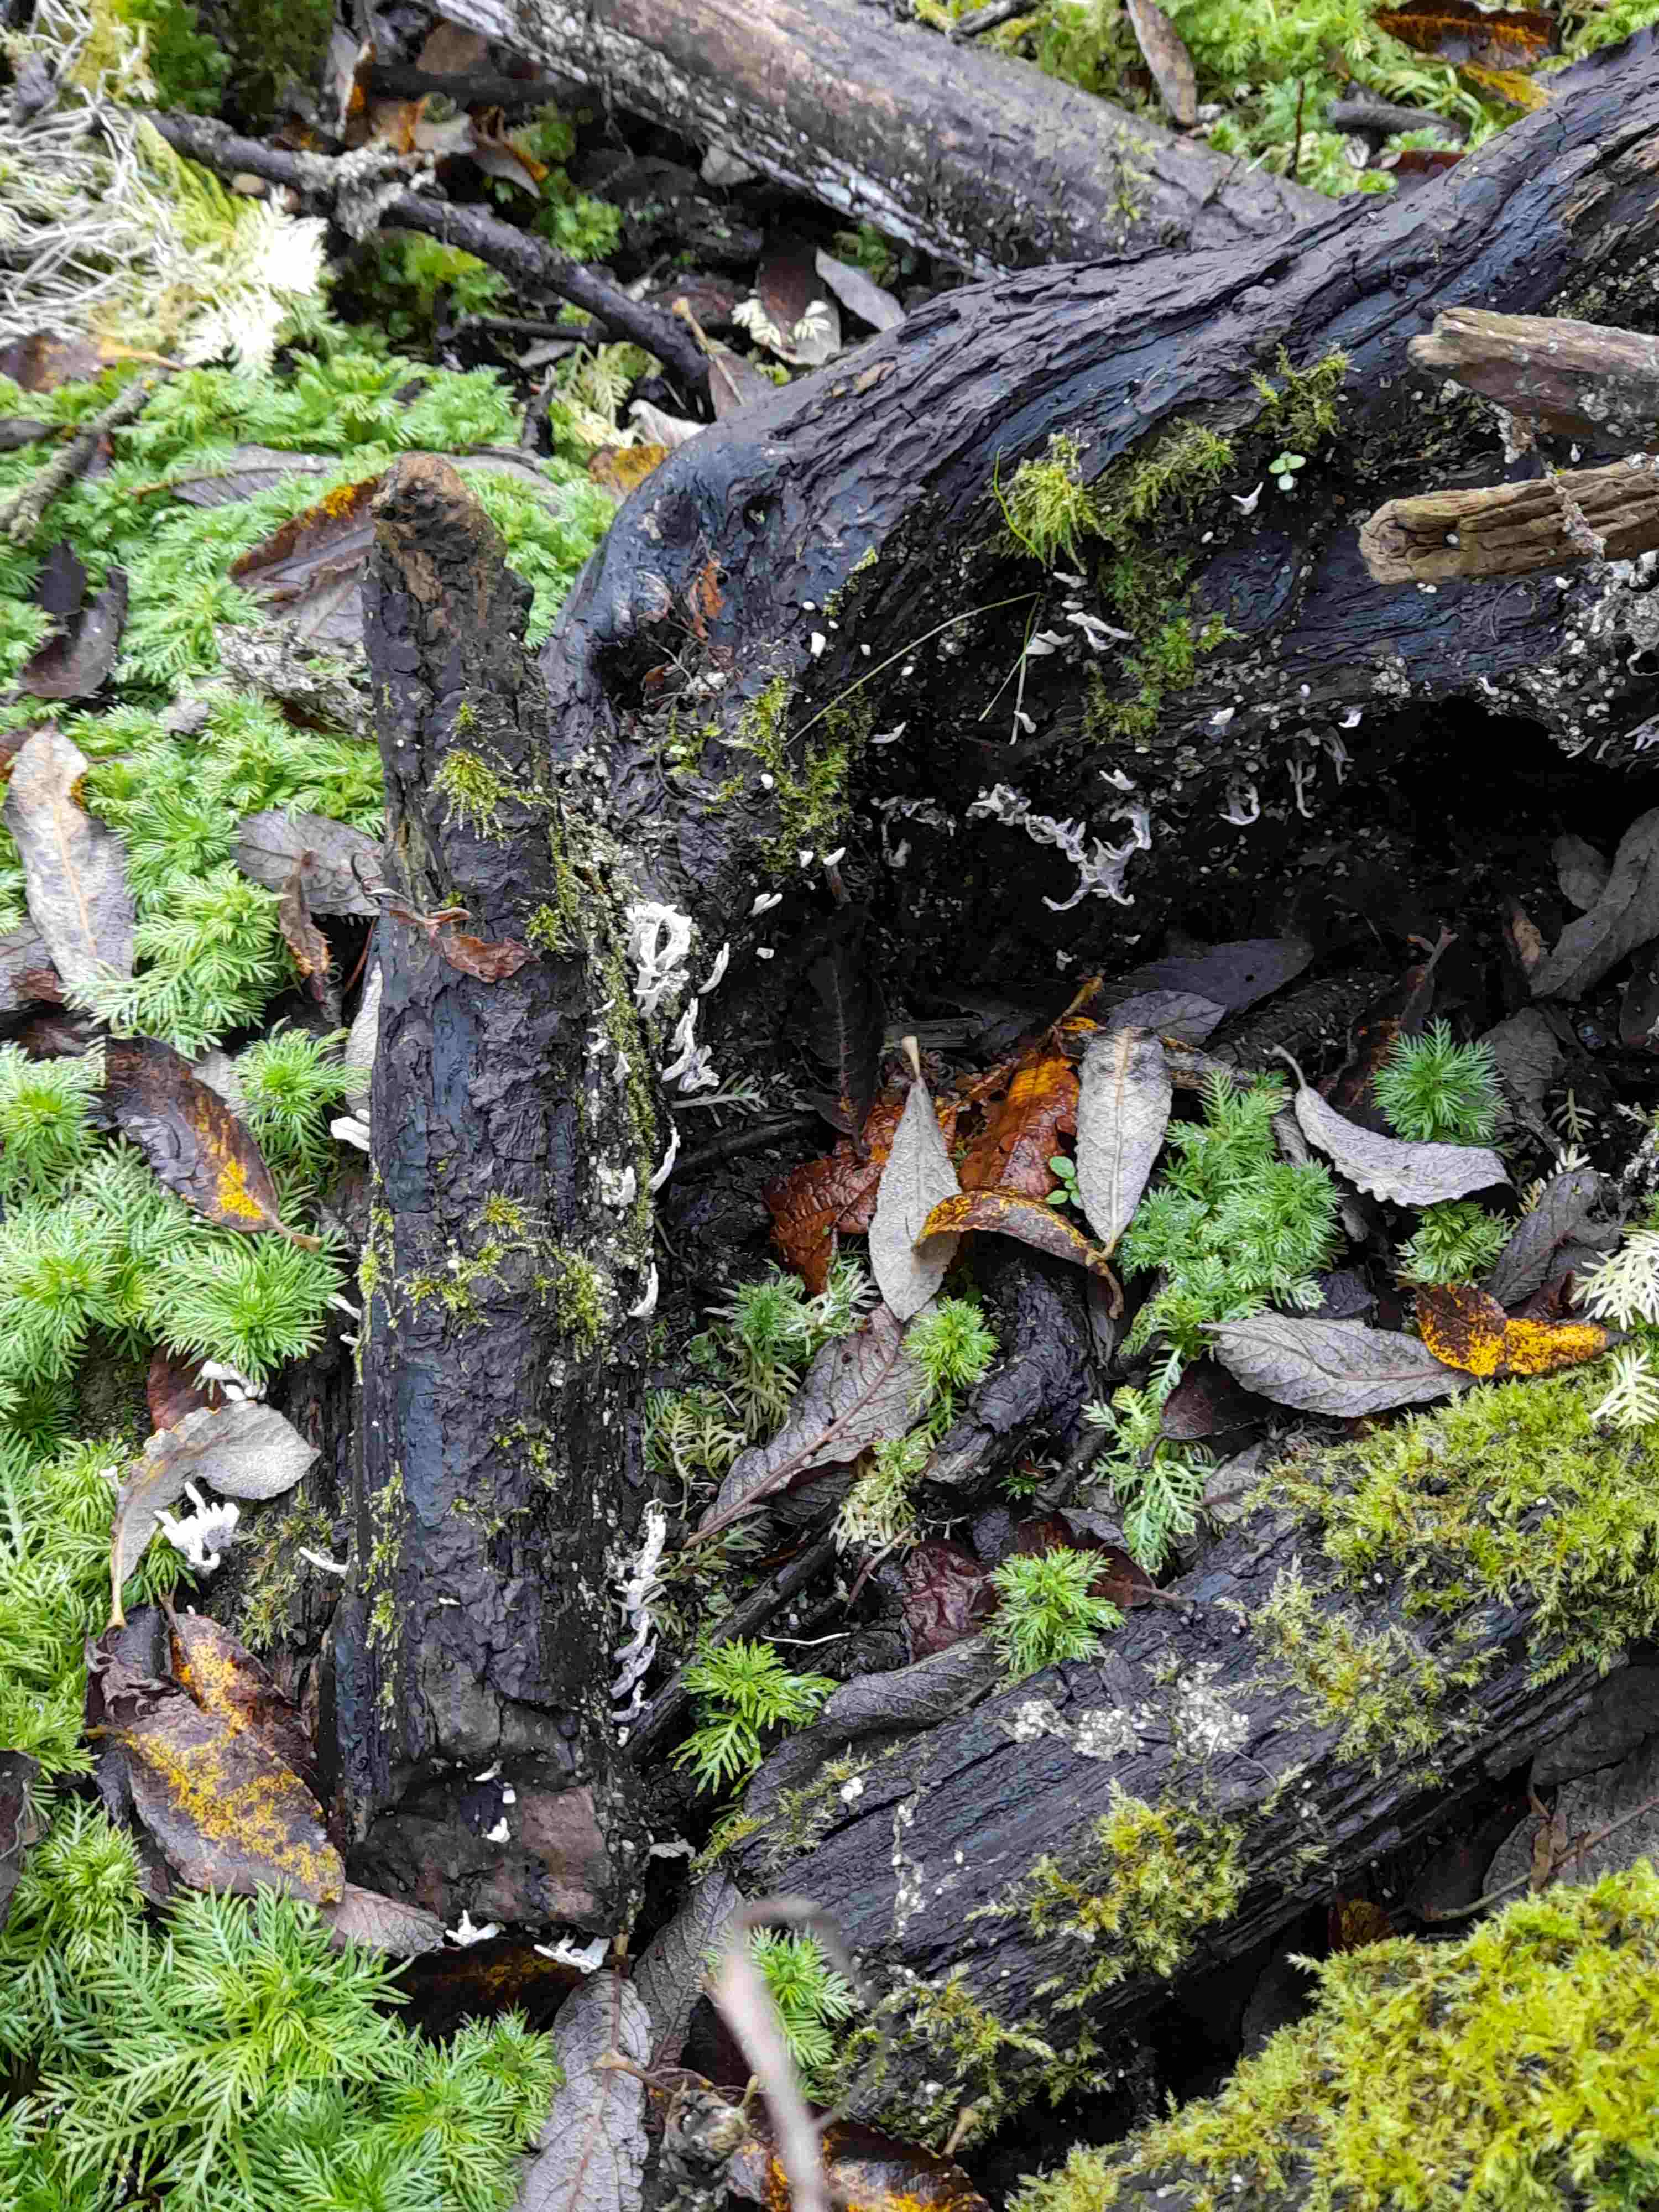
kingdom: Fungi
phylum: Ascomycota
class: Sordariomycetes
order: Xylariales
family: Xylariaceae
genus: Xylaria
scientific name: Xylaria hypoxylon
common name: grenet stødsvamp
